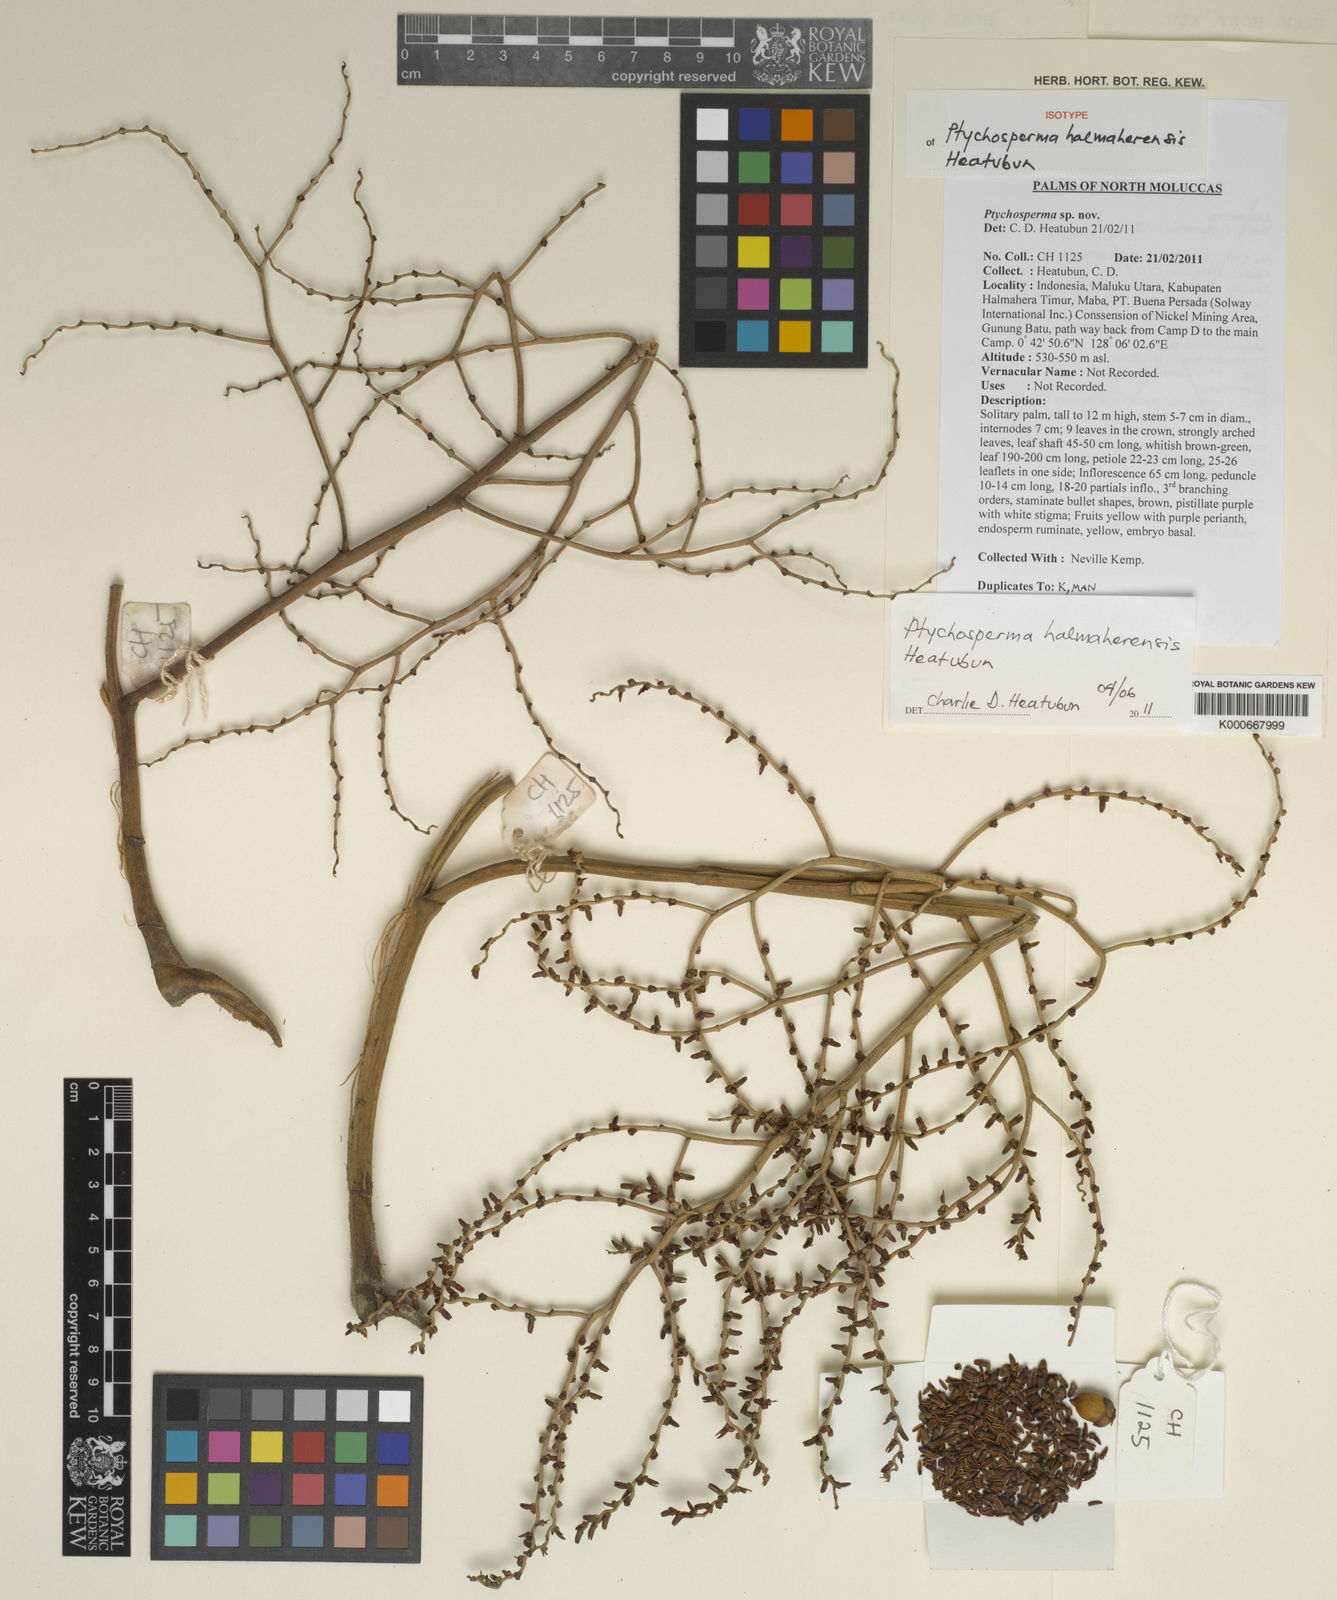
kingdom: Plantae
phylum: Tracheophyta
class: Liliopsida
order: Arecales
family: Arecaceae
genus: Jailoloa
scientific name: Jailoloa halmaherensis
